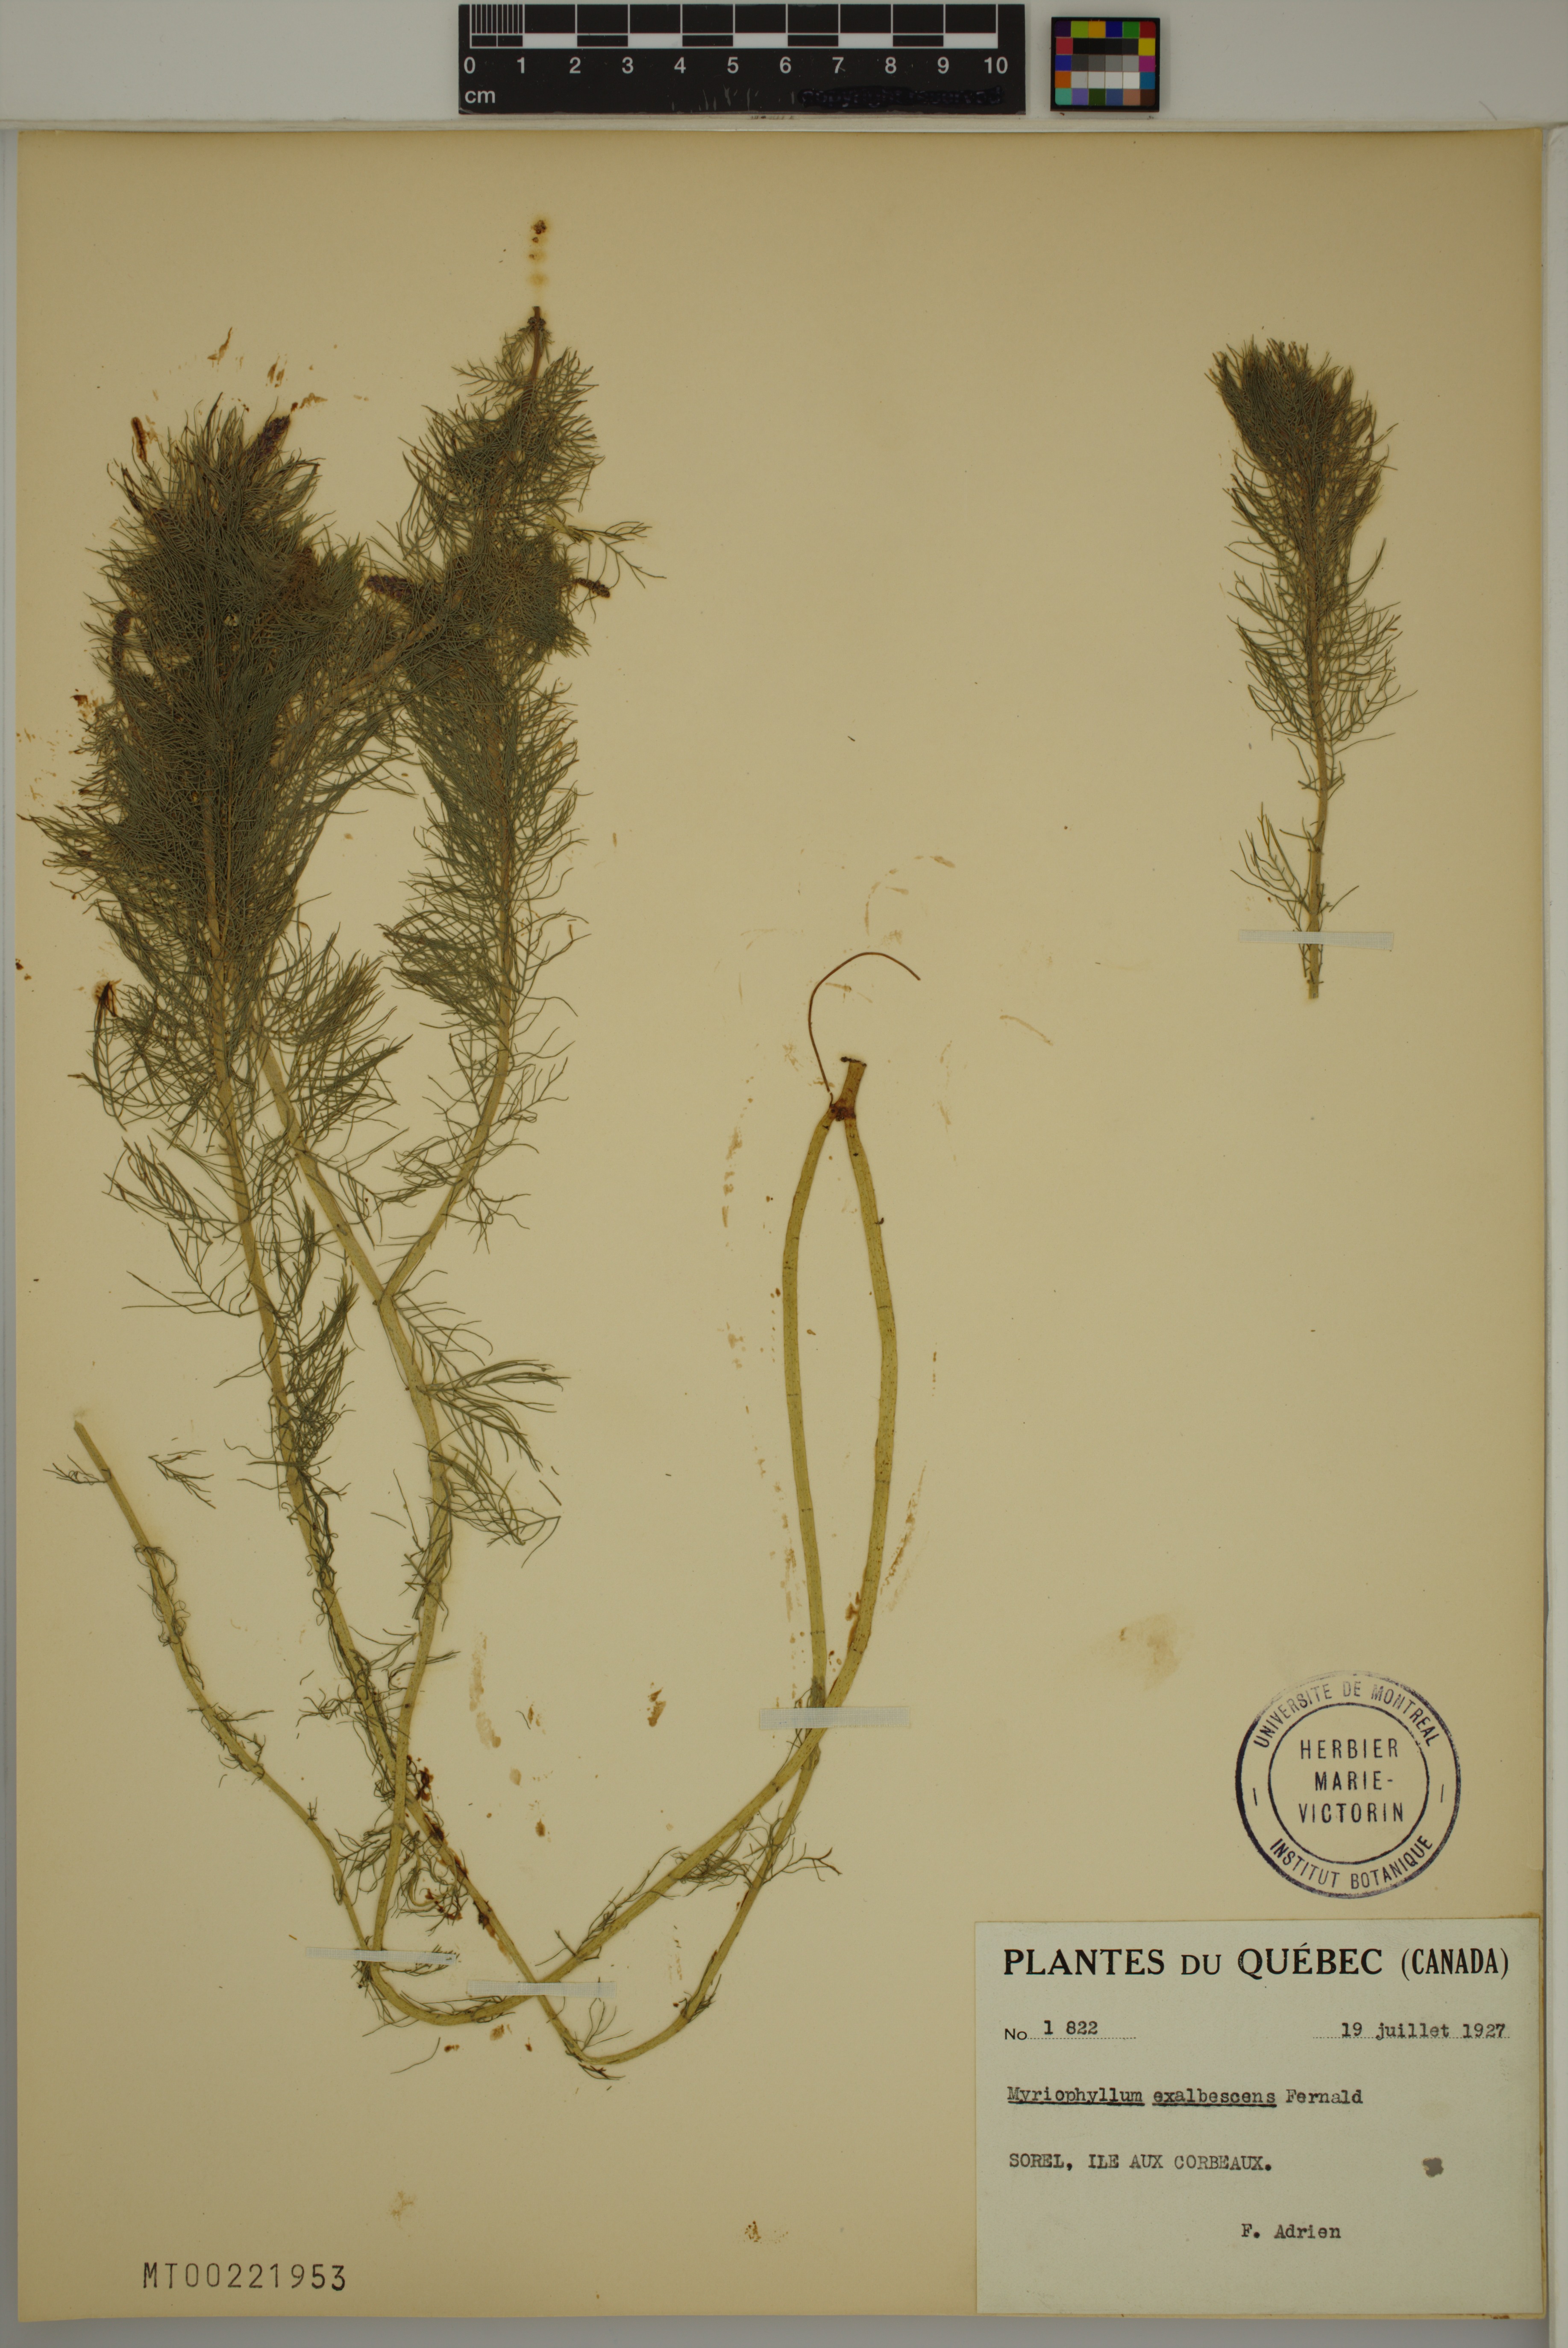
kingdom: Plantae
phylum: Tracheophyta
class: Magnoliopsida
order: Saxifragales
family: Haloragaceae
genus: Myriophyllum
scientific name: Myriophyllum sibiricum
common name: Siberian water-milfoil
